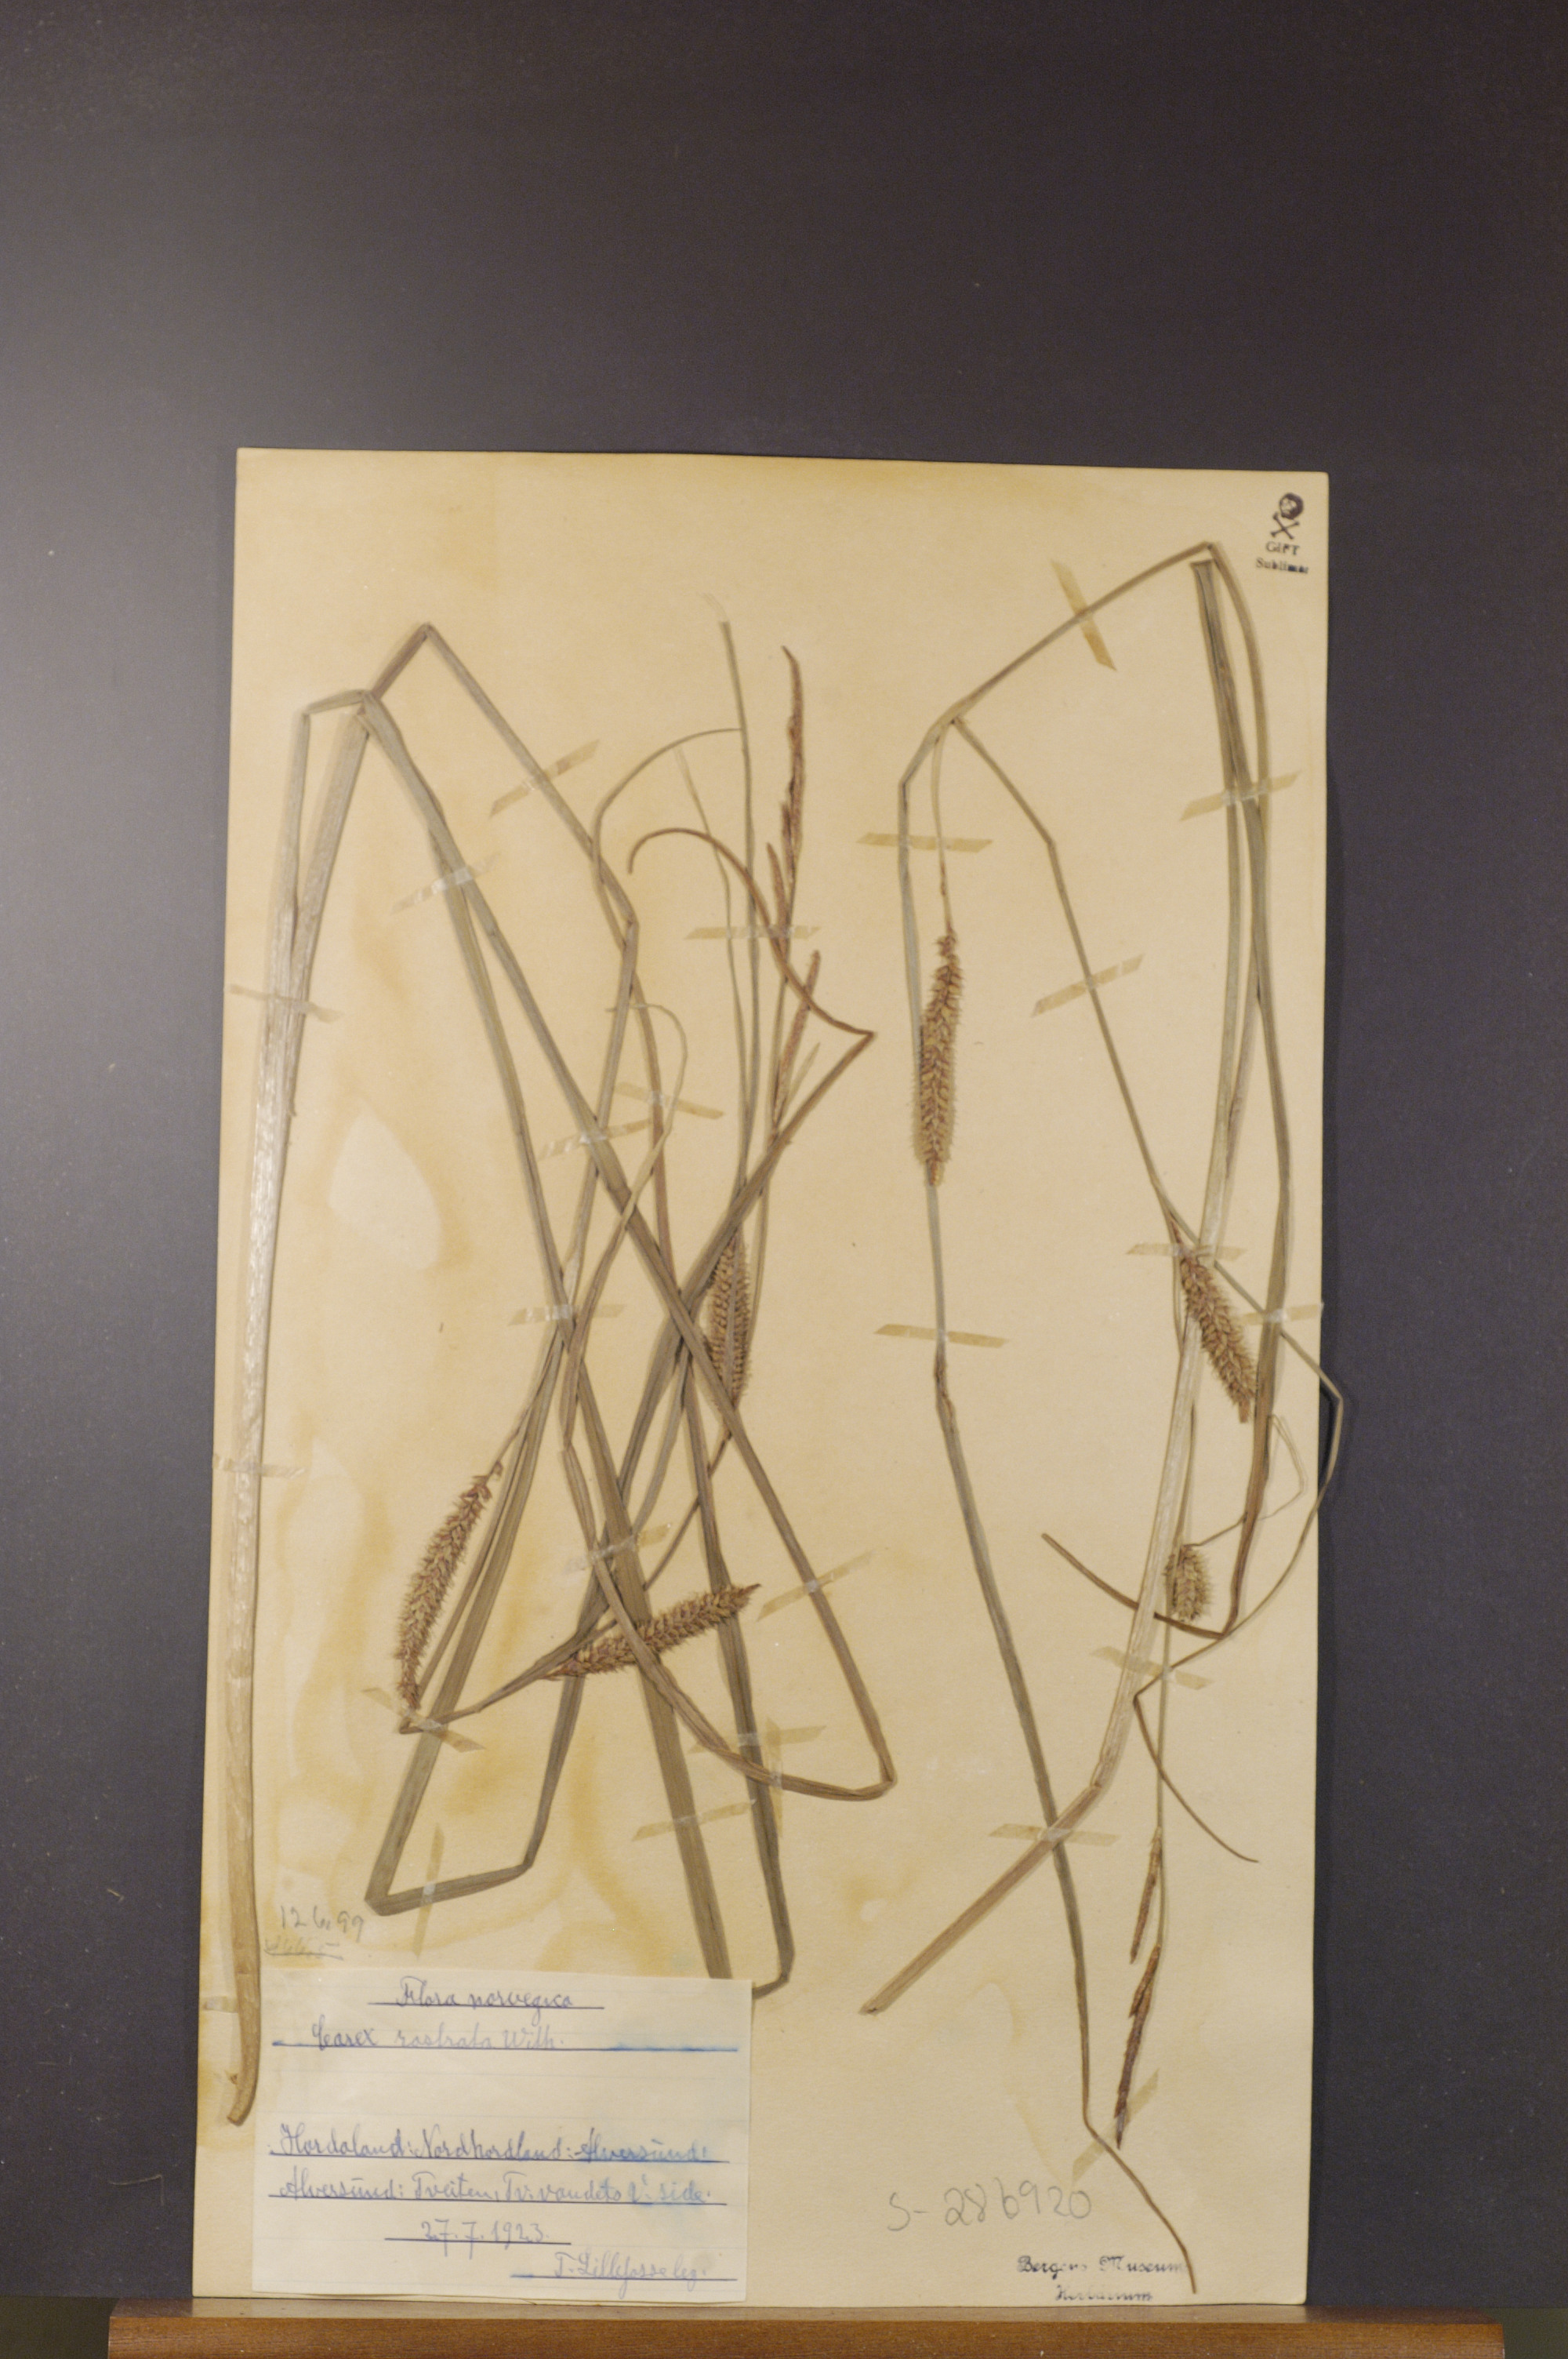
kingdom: Plantae
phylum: Tracheophyta
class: Liliopsida
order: Poales
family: Cyperaceae
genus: Carex
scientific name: Carex rostrata
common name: Bottle sedge
